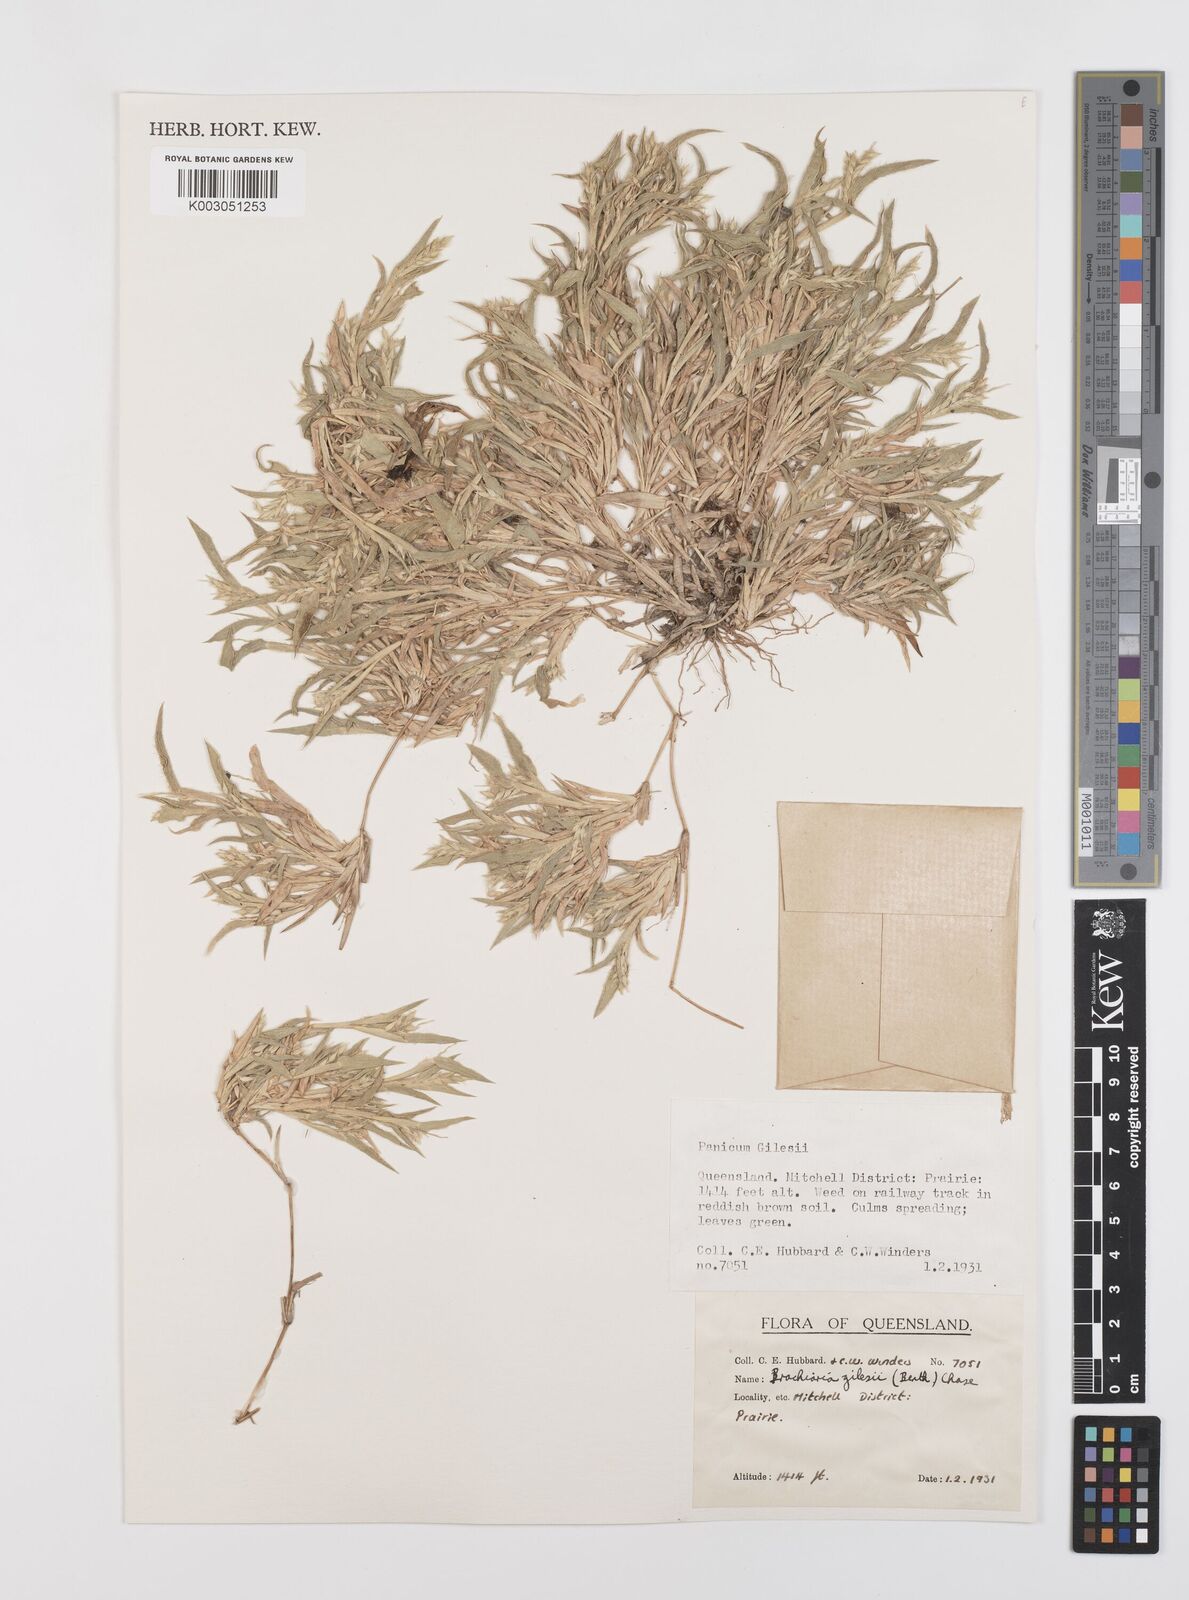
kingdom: Plantae
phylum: Tracheophyta
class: Liliopsida
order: Poales
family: Poaceae
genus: Urochloa
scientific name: Urochloa gilesii
